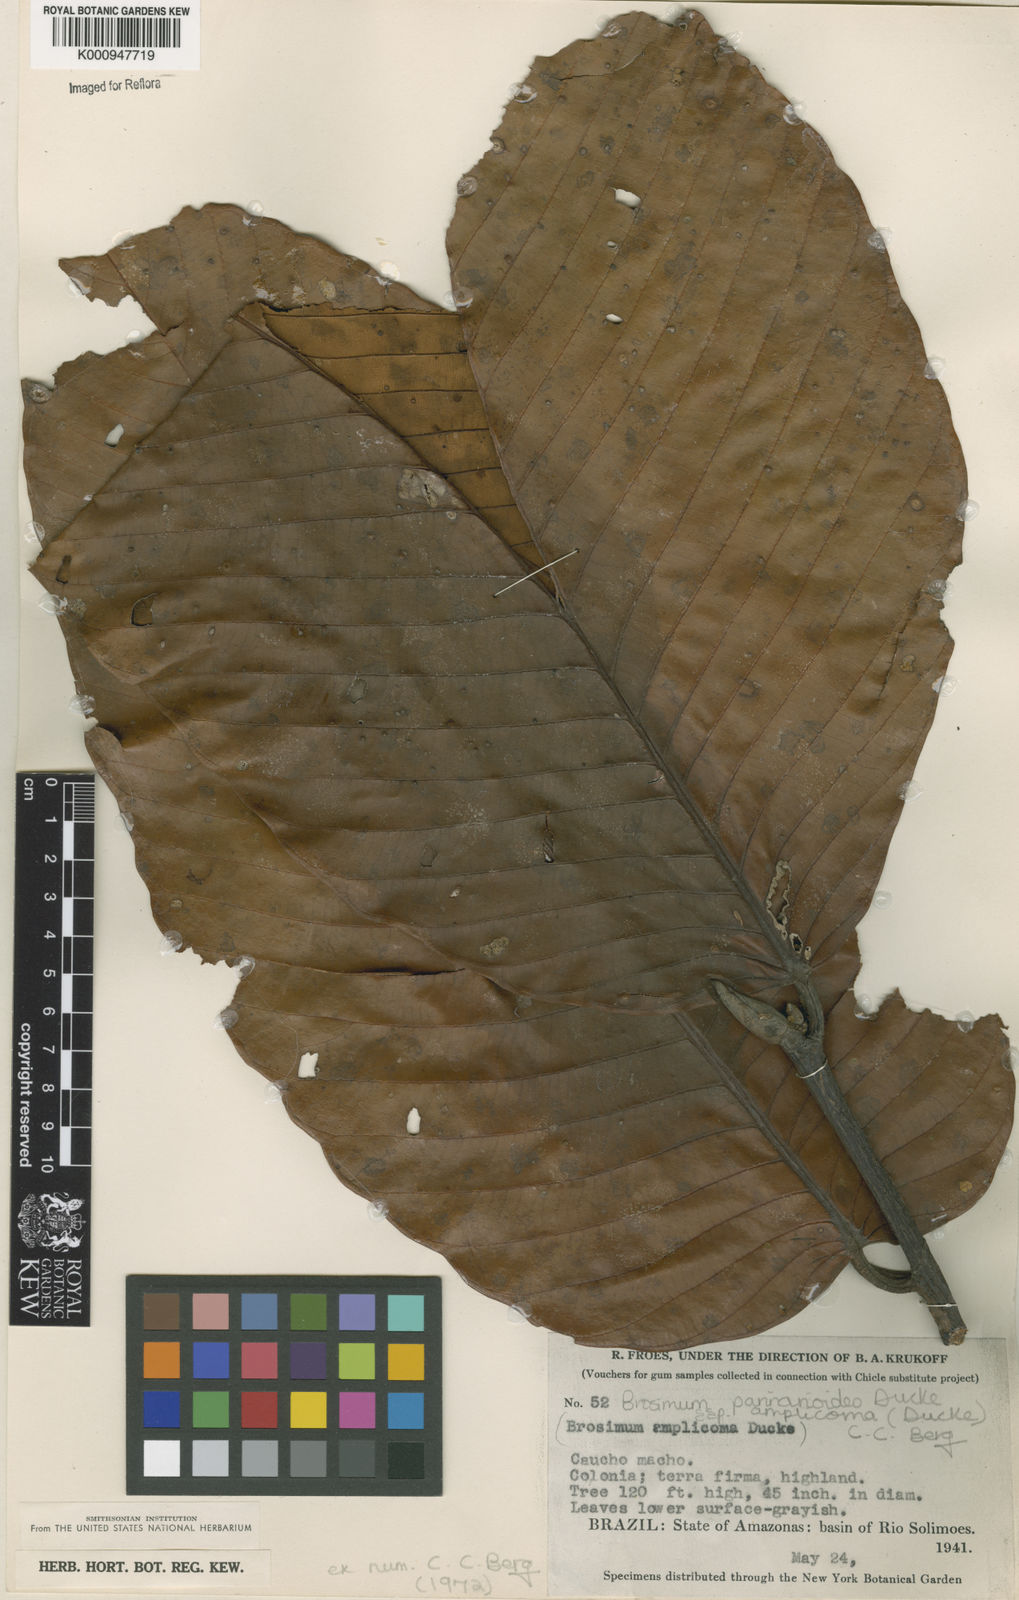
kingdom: Plantae
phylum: Tracheophyta
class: Magnoliopsida
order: Rosales
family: Moraceae
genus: Brosimum
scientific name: Brosimum parinarioides
